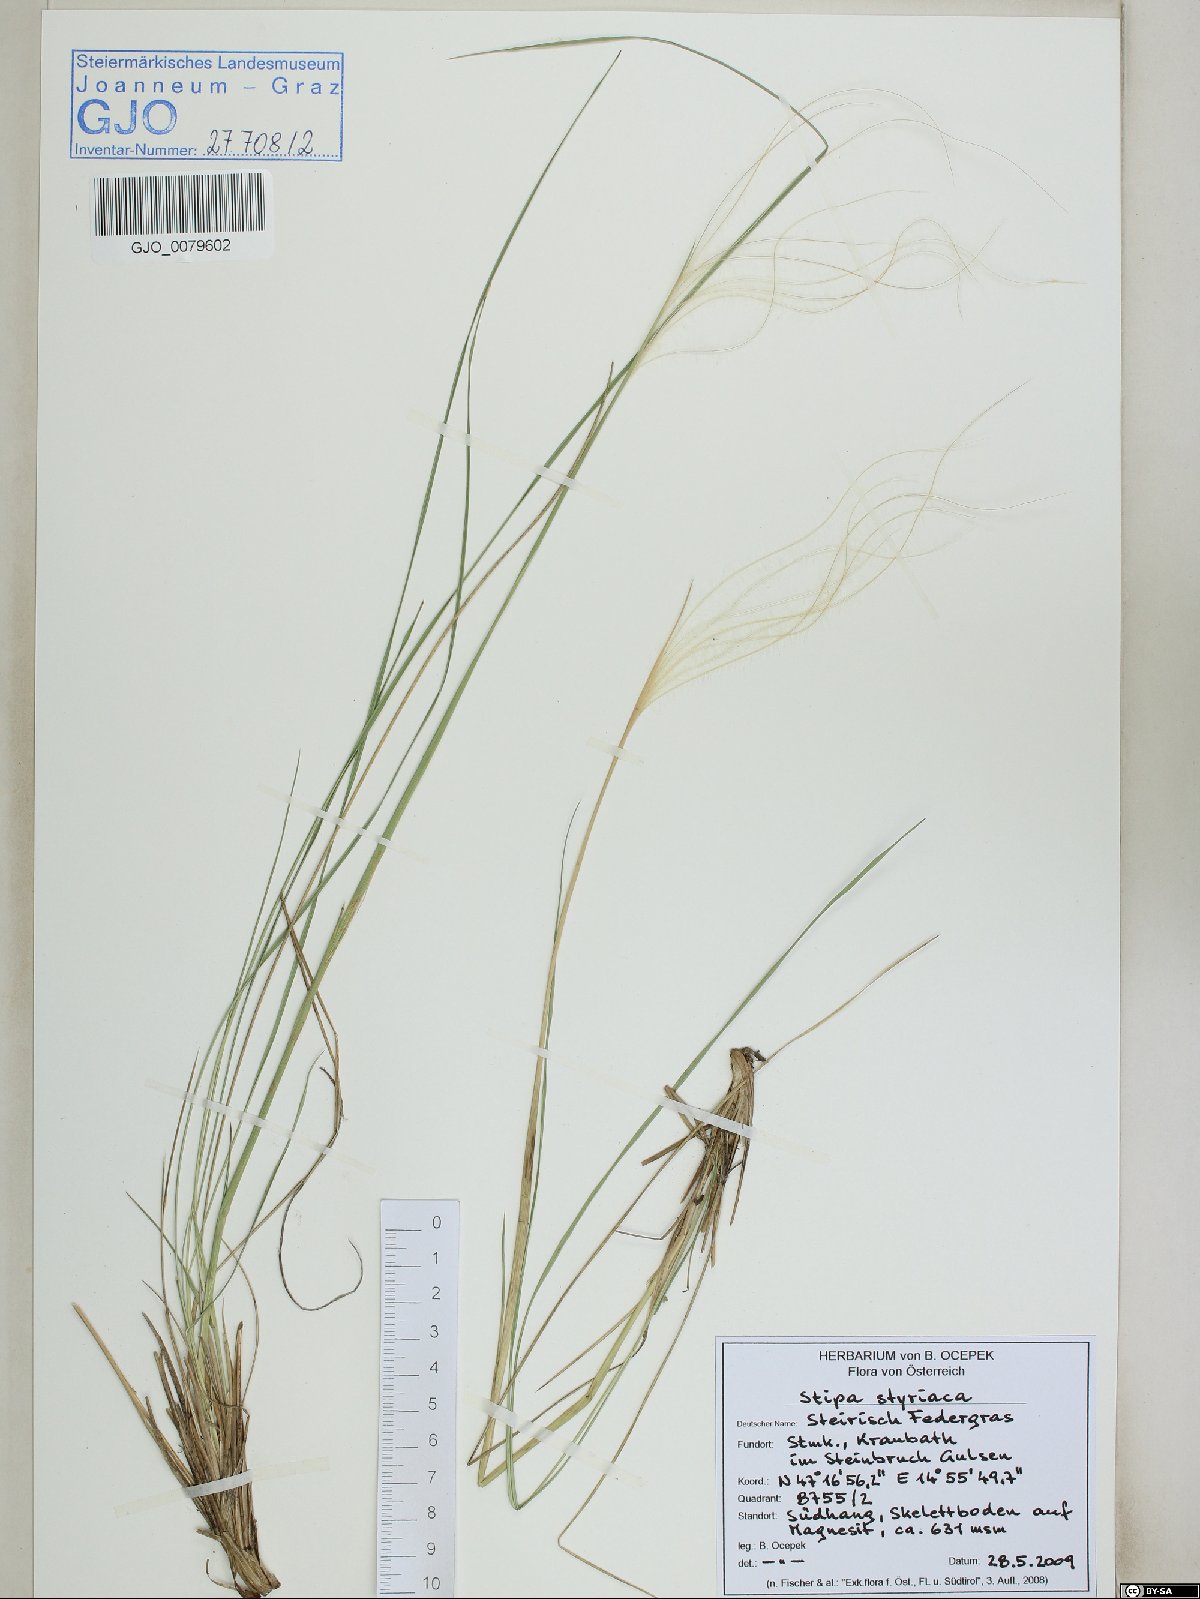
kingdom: Plantae
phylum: Tracheophyta
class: Liliopsida
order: Poales
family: Poaceae
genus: Stipa
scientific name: Stipa pennata
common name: European feather grass
